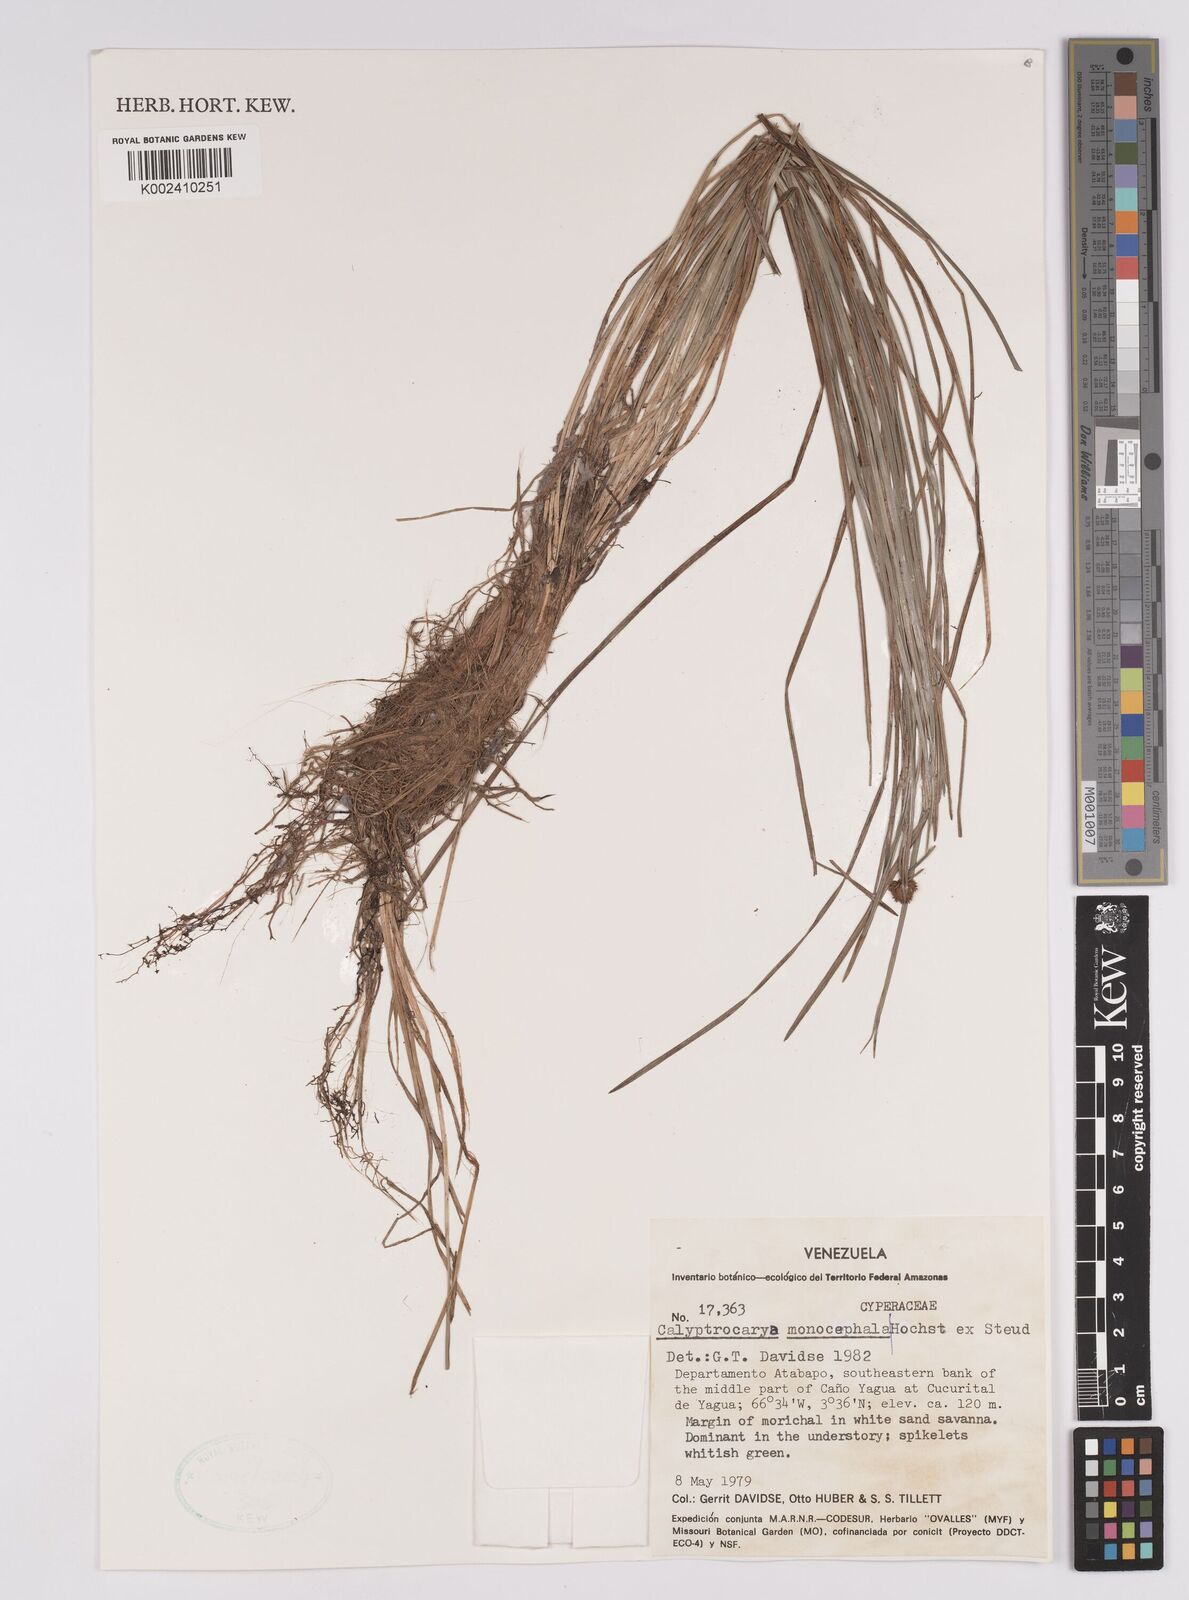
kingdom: Plantae
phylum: Tracheophyta
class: Liliopsida
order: Poales
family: Cyperaceae
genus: Calyptrocarya
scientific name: Calyptrocarya monocephala
